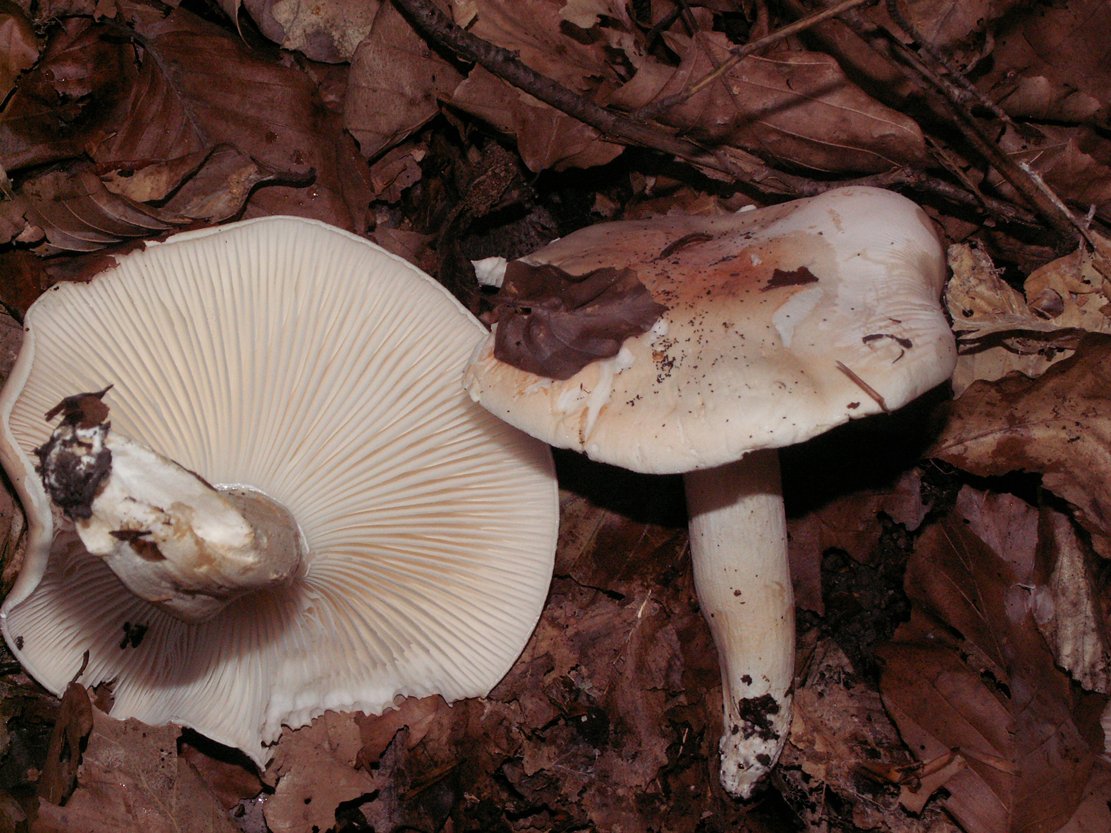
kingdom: Fungi
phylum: Basidiomycota
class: Agaricomycetes
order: Agaricales
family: Hygrophoraceae
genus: Hygrophorus
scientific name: Hygrophorus poetarum
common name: duftende sneglehat
